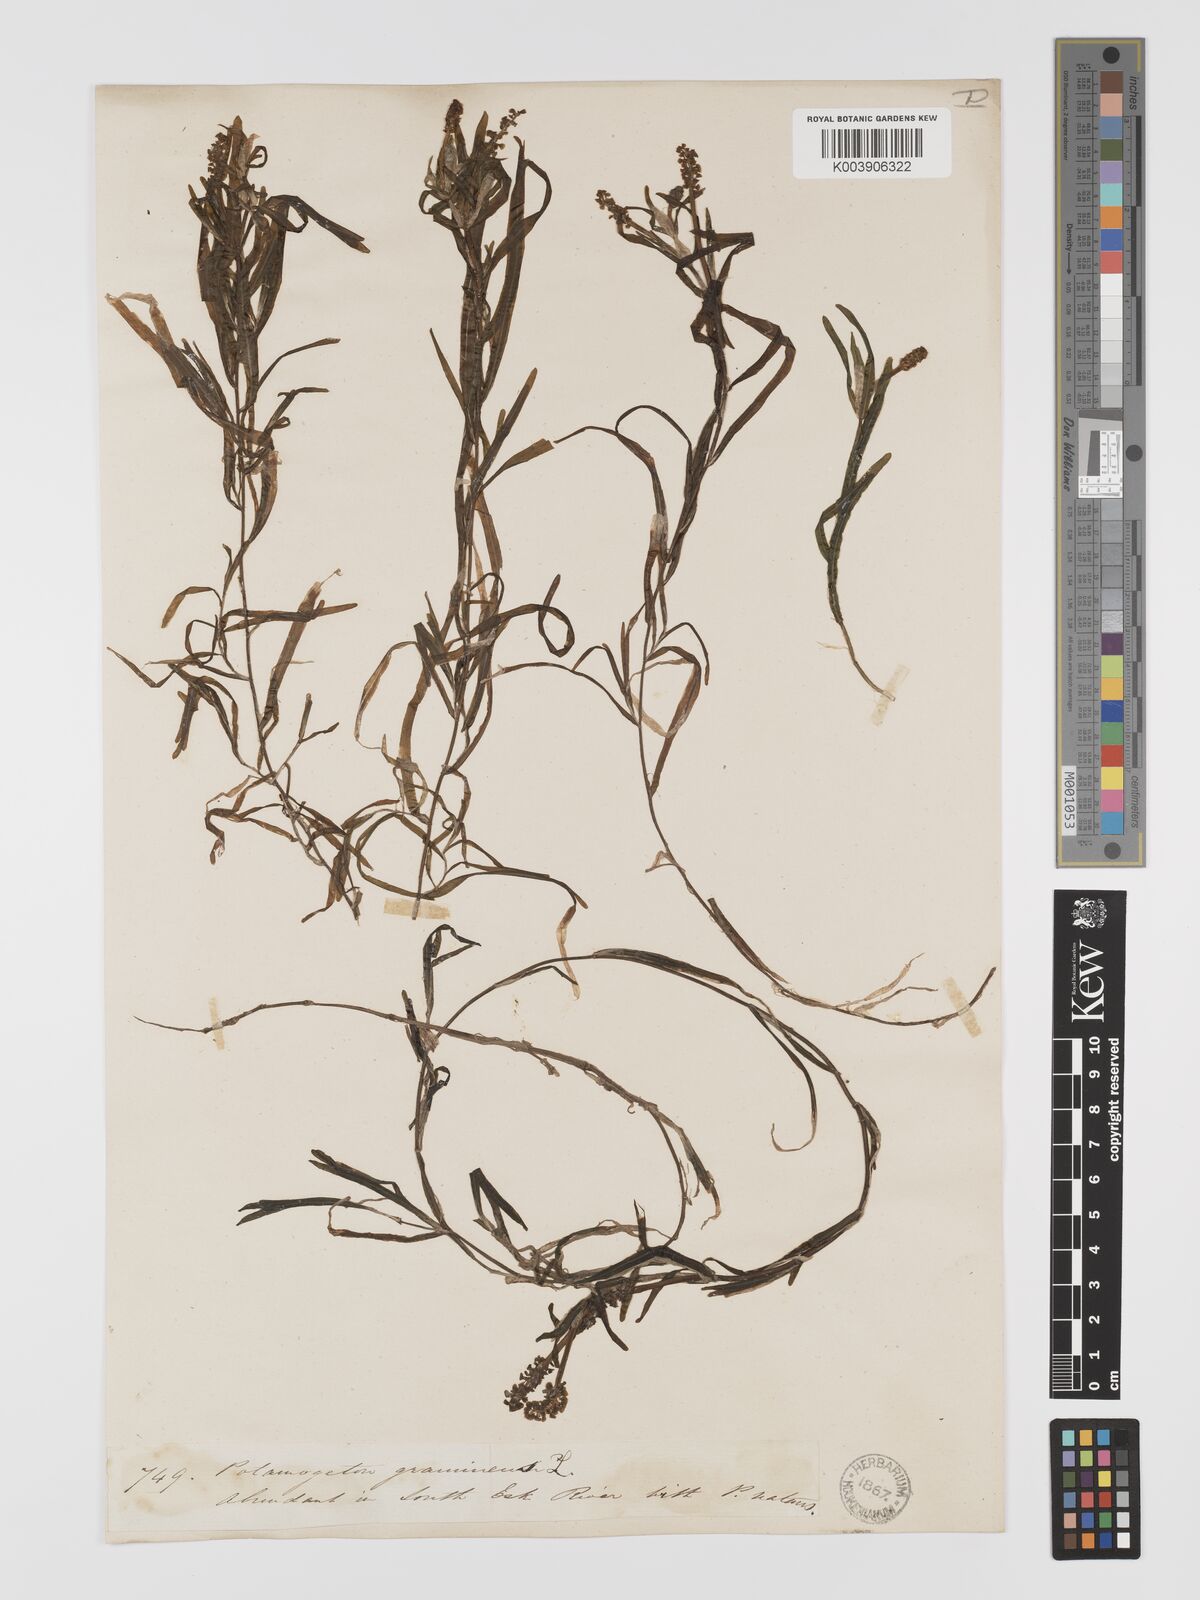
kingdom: Plantae
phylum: Tracheophyta
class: Liliopsida
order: Alismatales
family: Potamogetonaceae
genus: Potamogeton
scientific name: Potamogeton ochreatus
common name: Blunt pondweed
